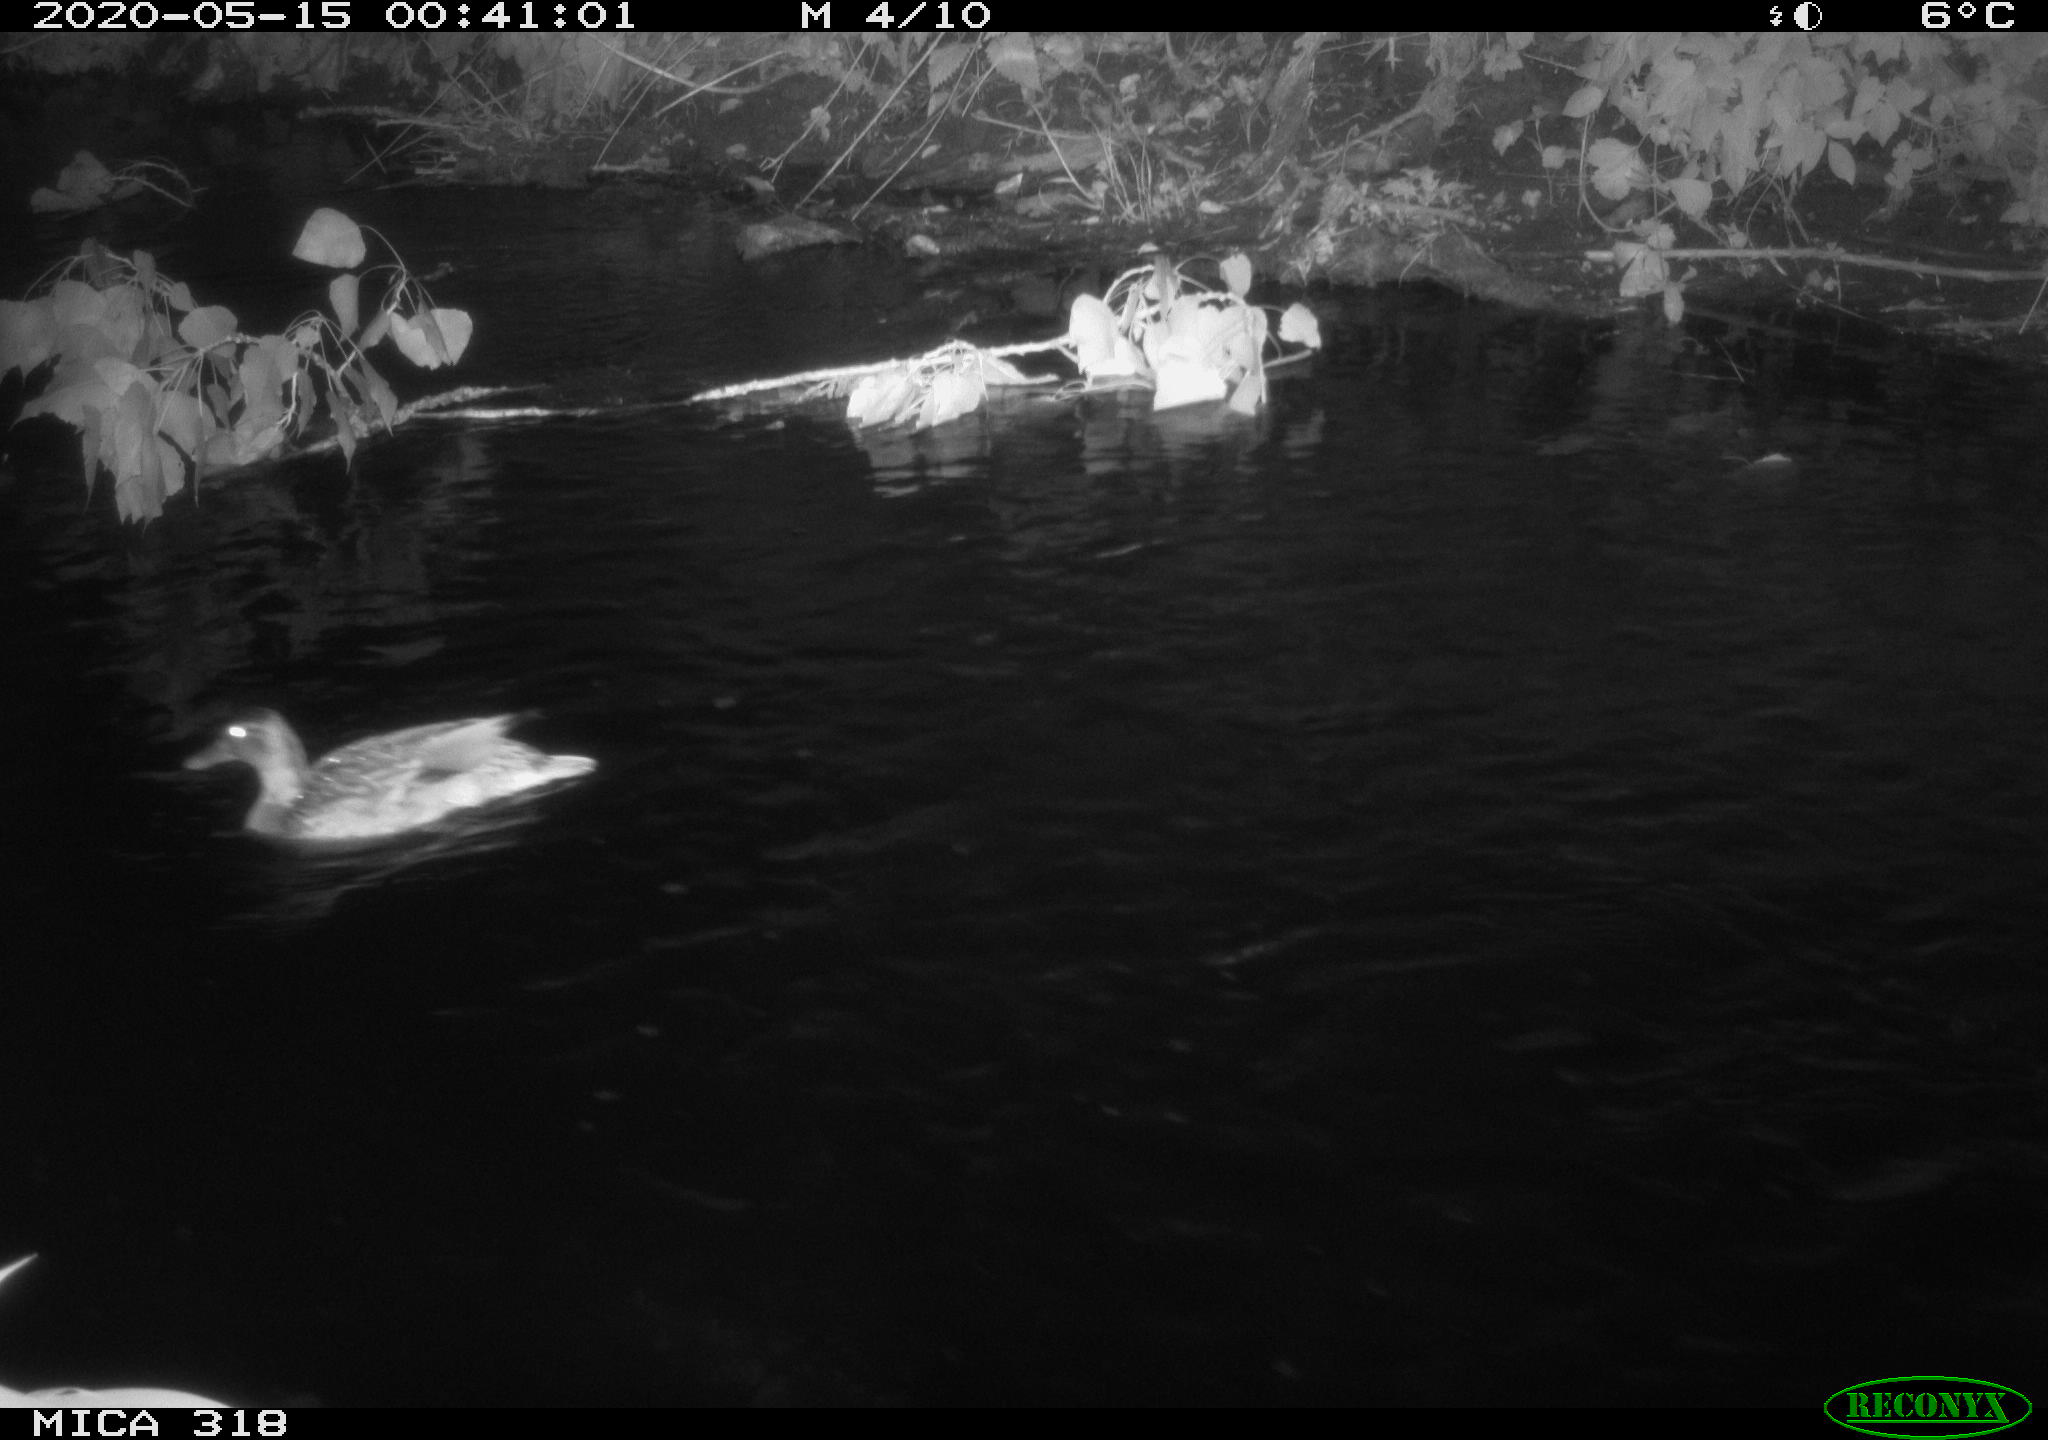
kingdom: Animalia
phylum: Chordata
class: Aves
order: Anseriformes
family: Anatidae
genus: Anas
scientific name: Anas platyrhynchos
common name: Mallard
